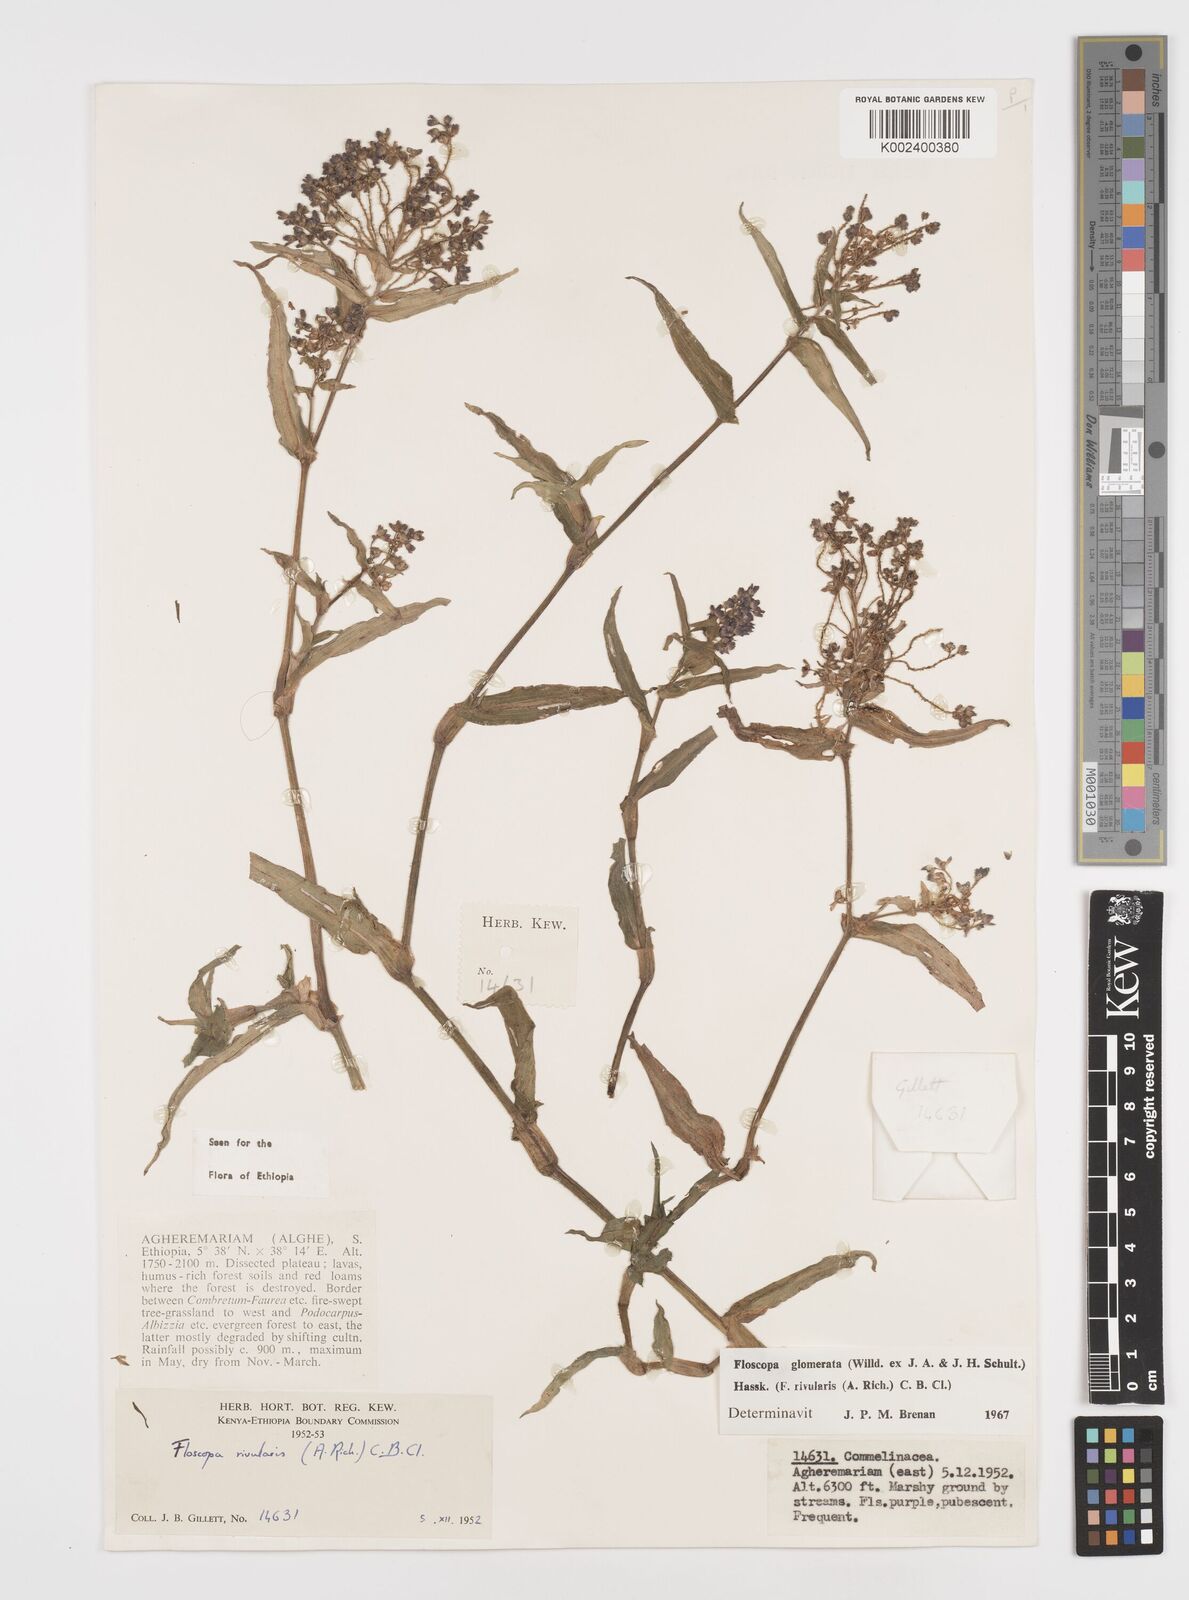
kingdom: Plantae
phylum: Tracheophyta
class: Liliopsida
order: Commelinales
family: Commelinaceae
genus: Floscopa
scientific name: Floscopa glomerata
